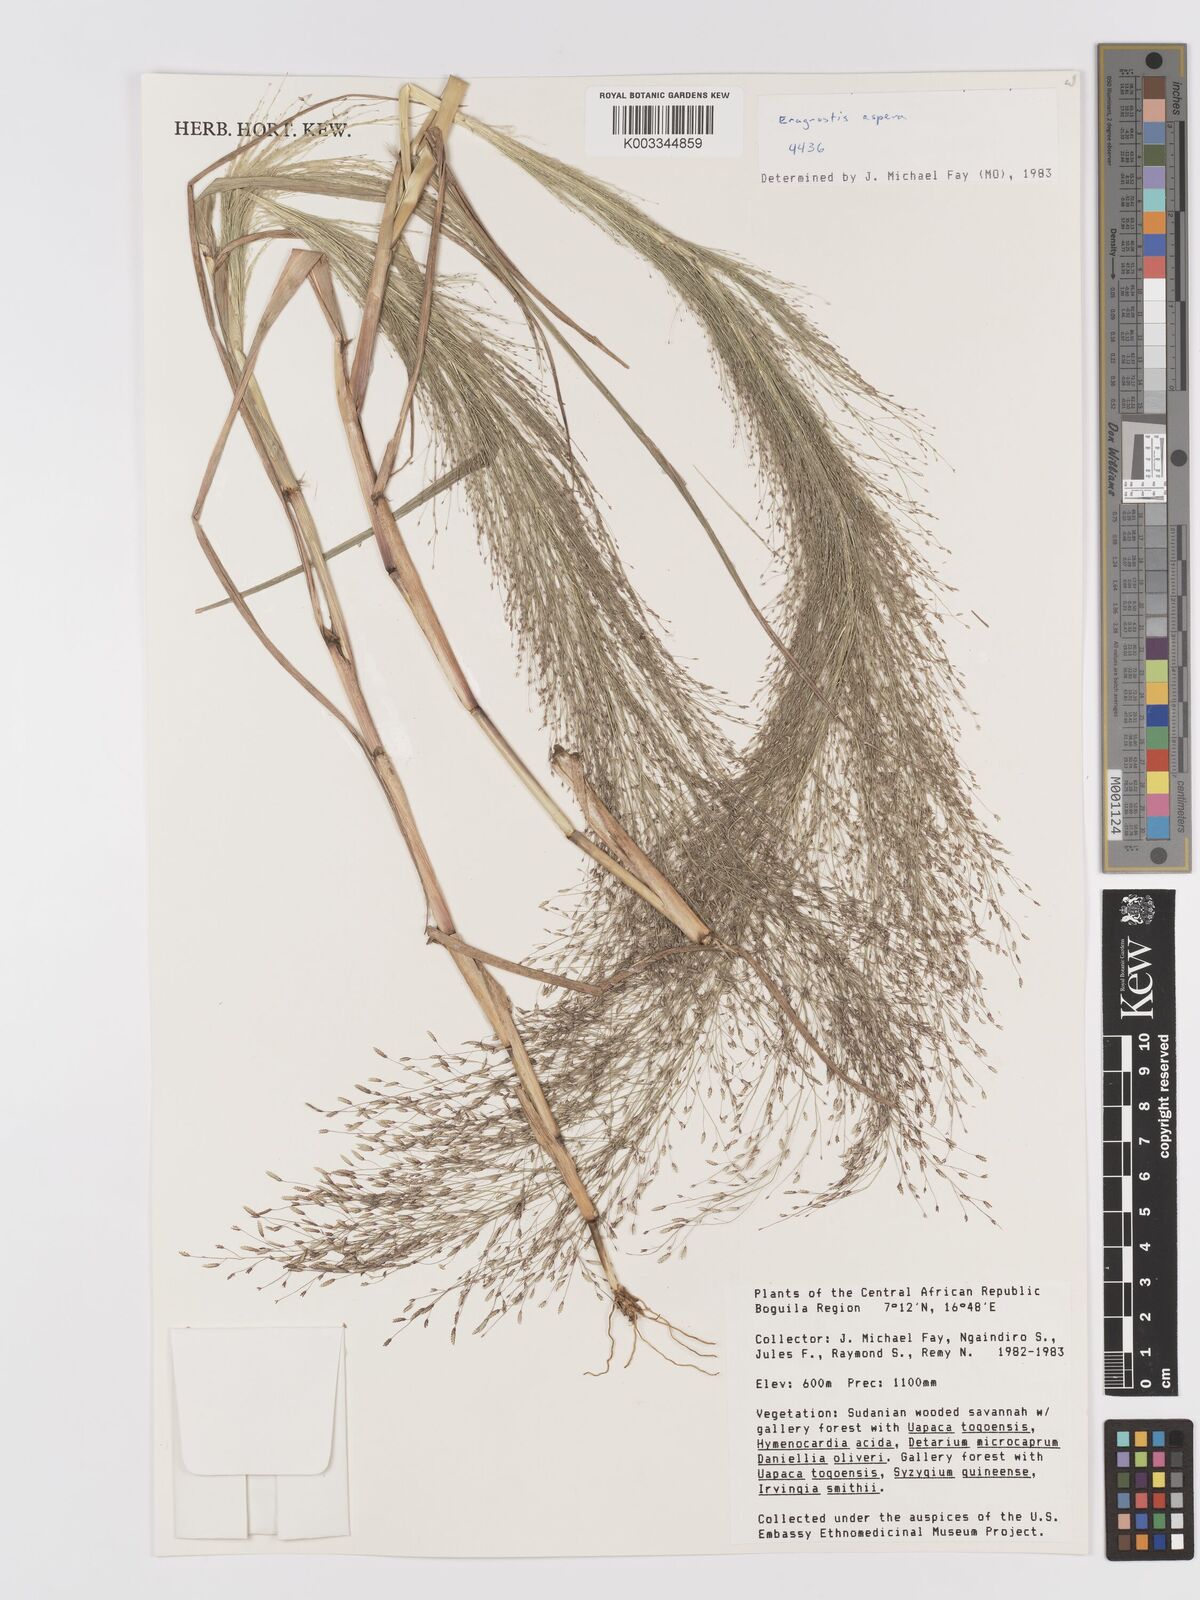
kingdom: Plantae
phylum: Tracheophyta
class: Liliopsida
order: Poales
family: Poaceae
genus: Eragrostis
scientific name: Eragrostis aspera
